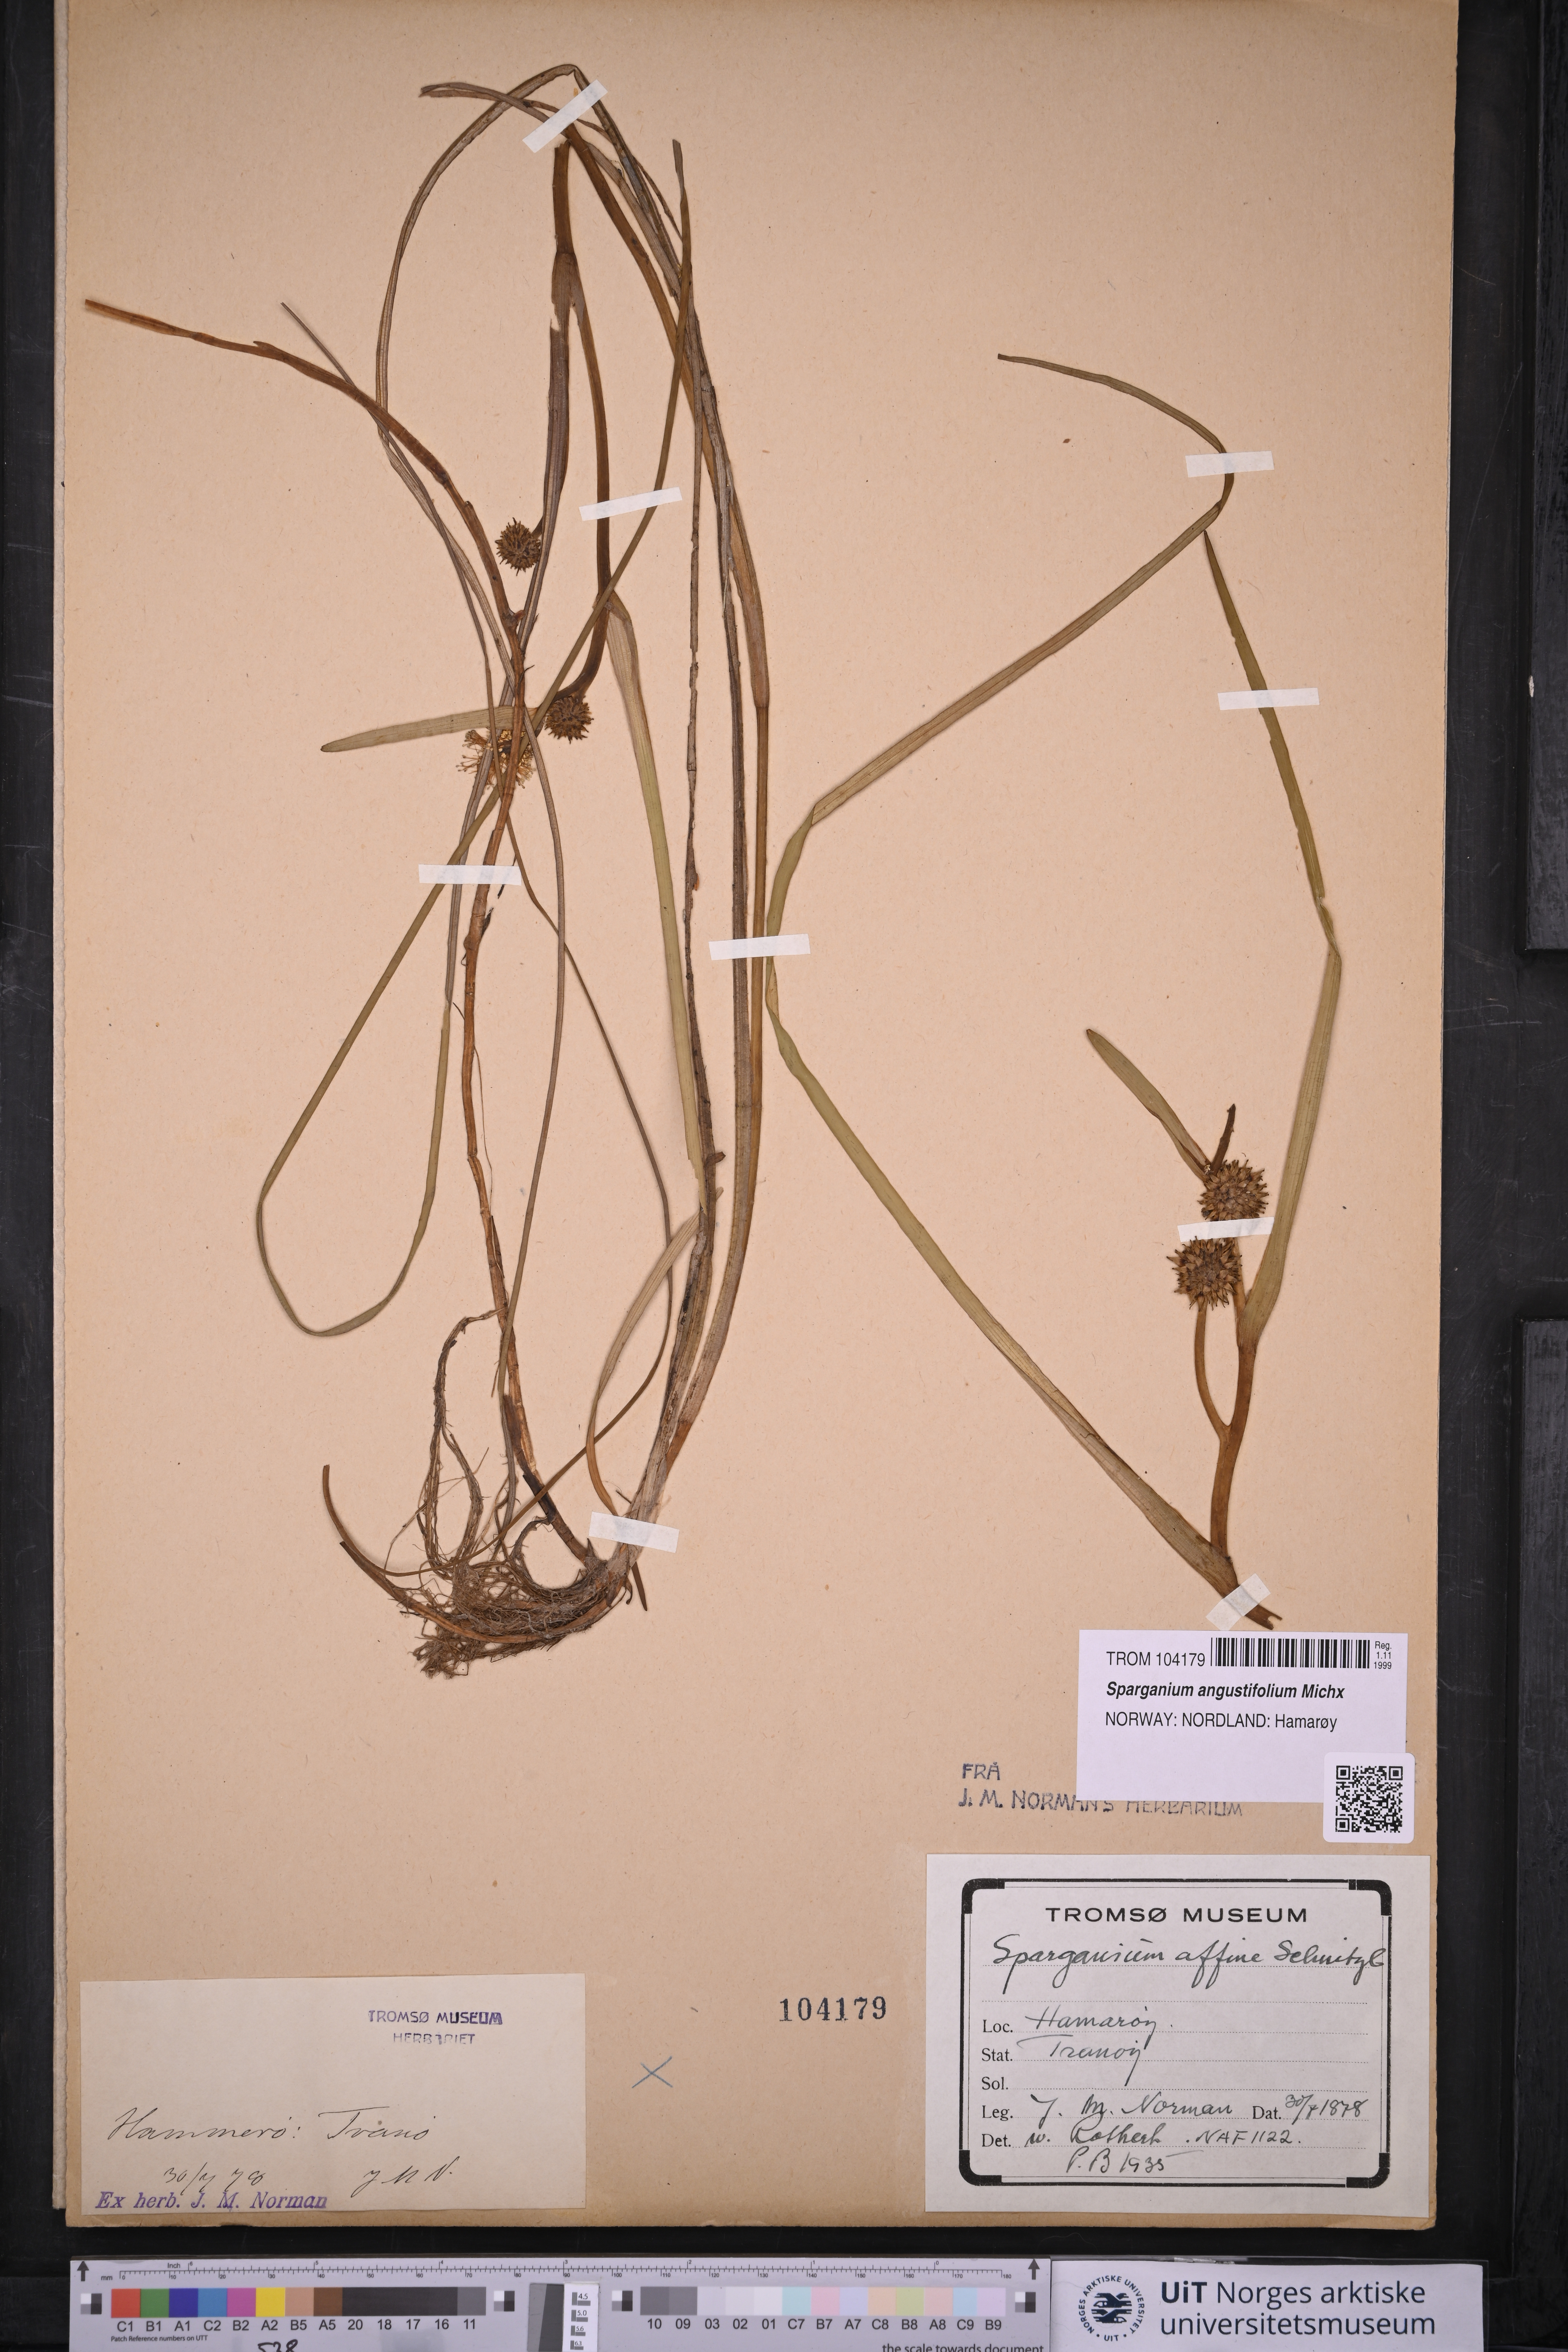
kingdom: Plantae
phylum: Tracheophyta
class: Liliopsida
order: Poales
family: Typhaceae
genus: Sparganium
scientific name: Sparganium angustifolium
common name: Floating bur-reed
